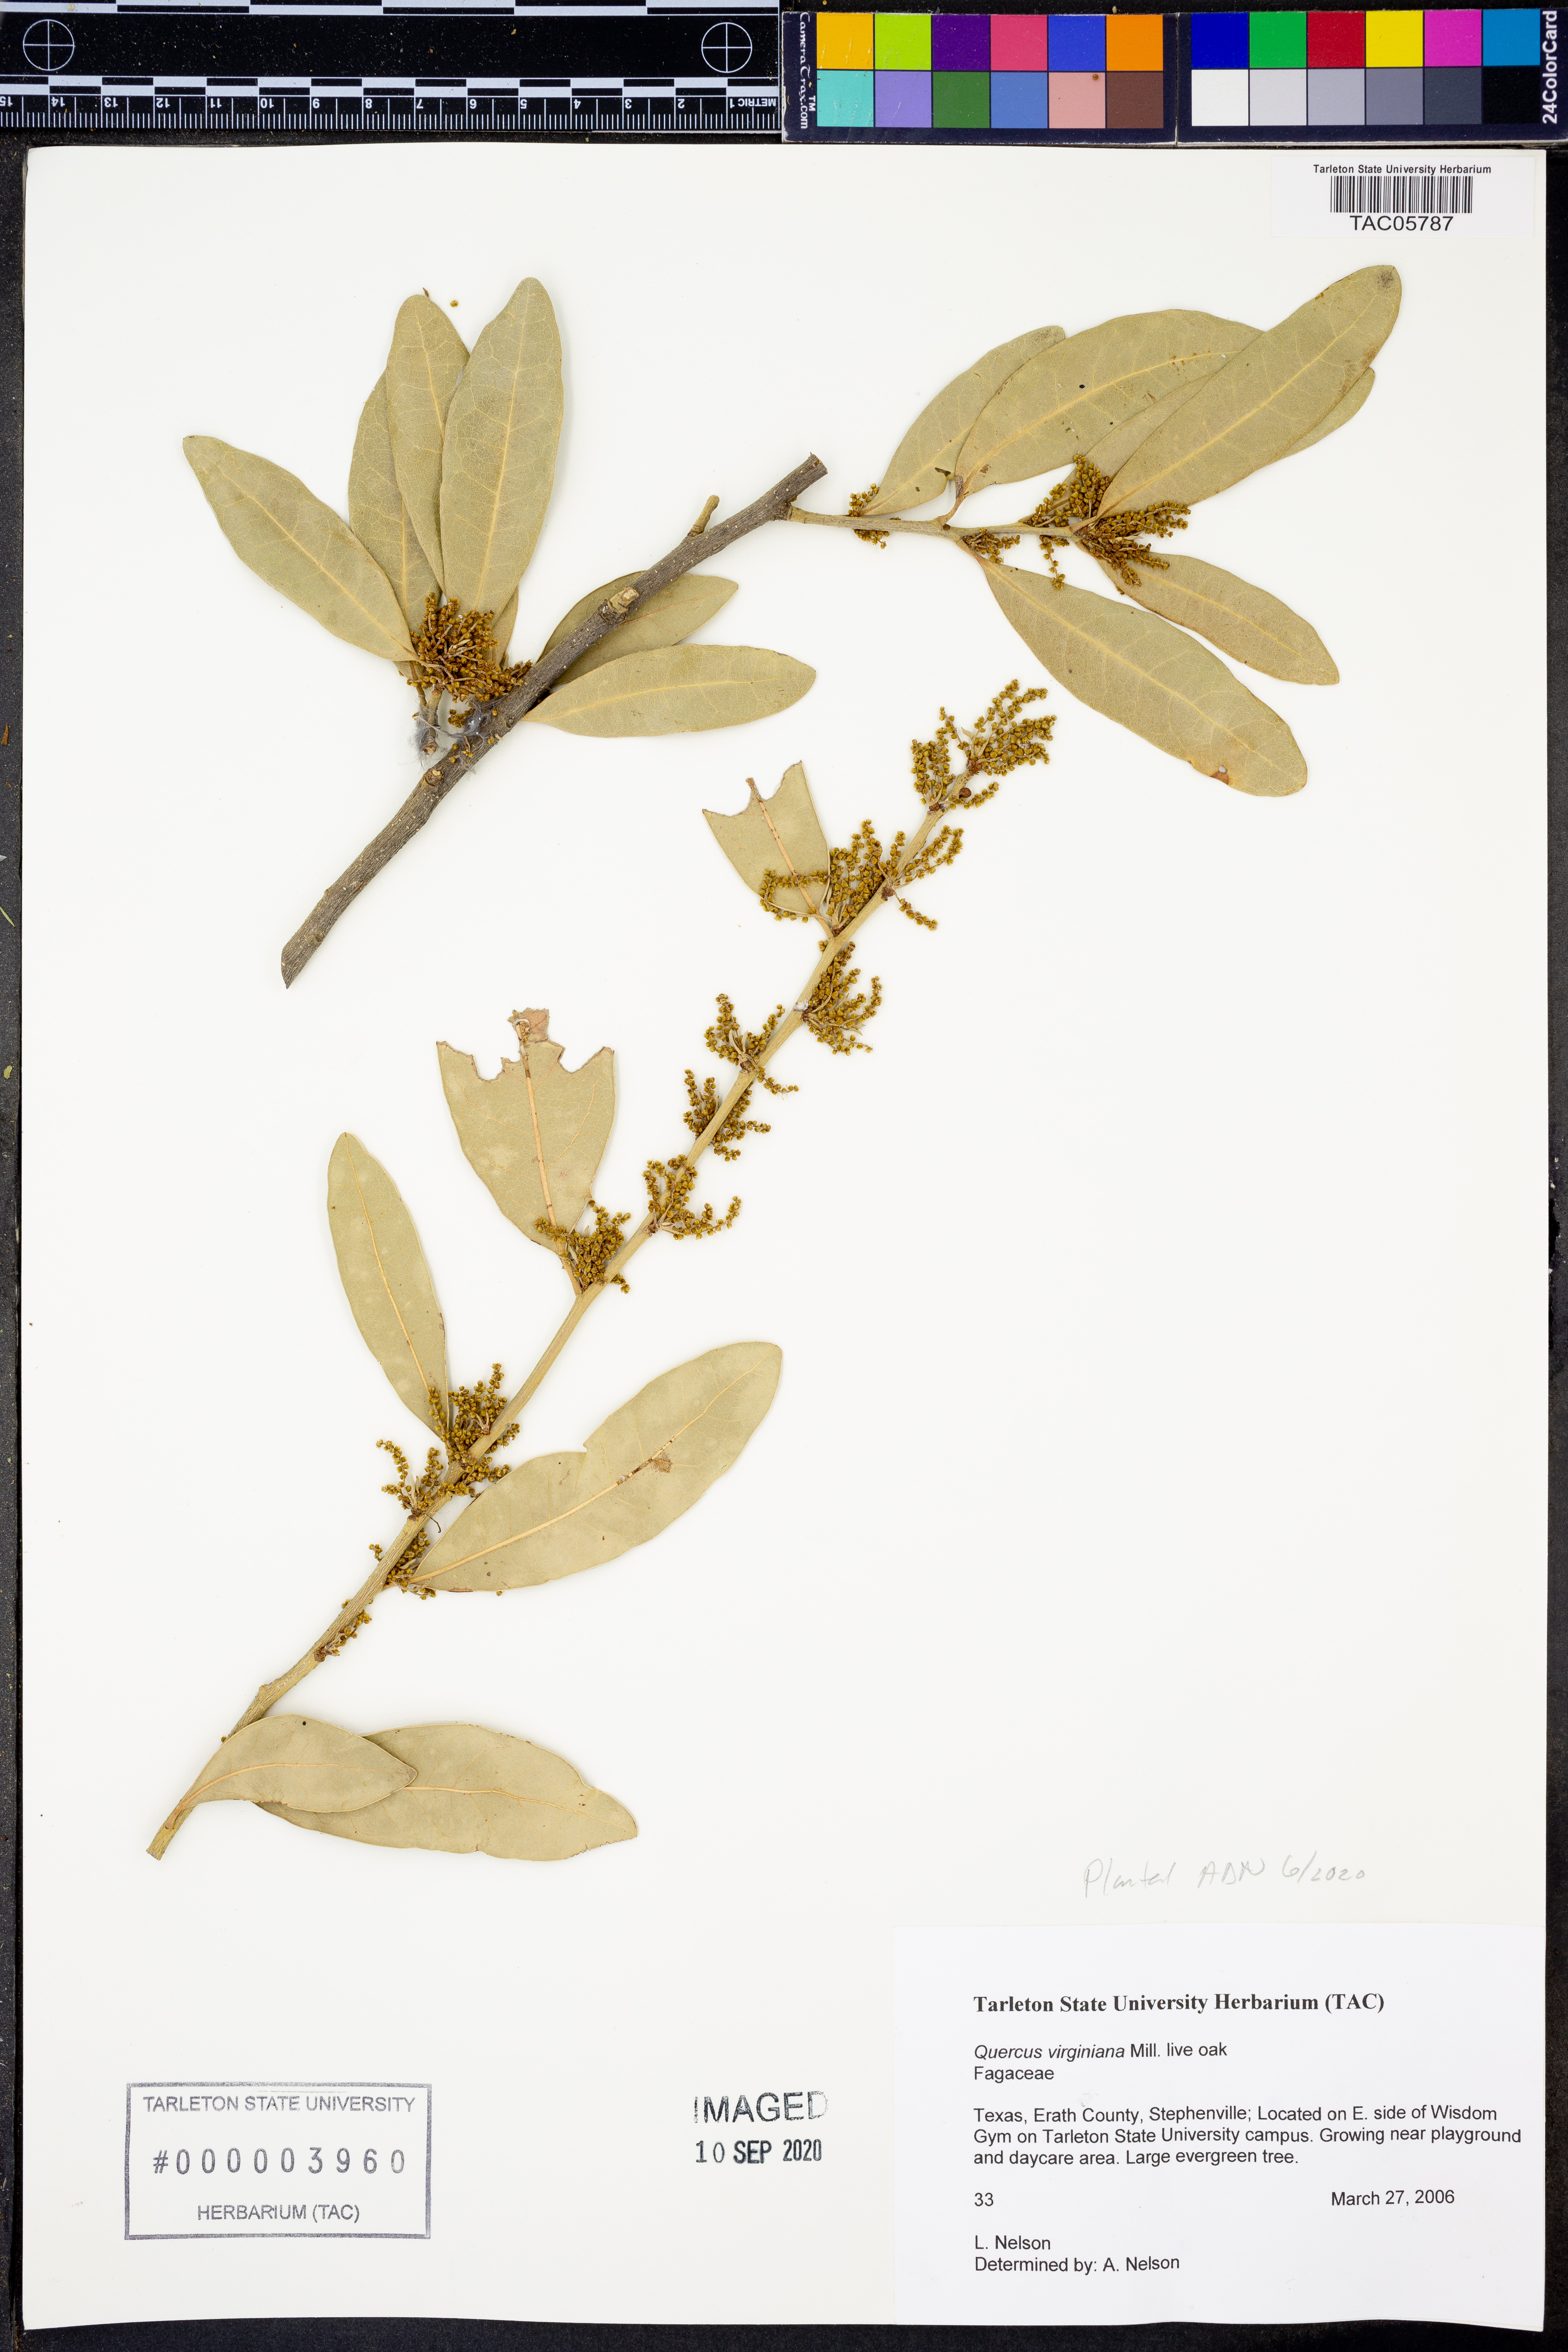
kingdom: Plantae
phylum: Tracheophyta
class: Magnoliopsida
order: Fagales
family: Fagaceae
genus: Quercus
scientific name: Quercus virginiana
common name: Southern live oak
